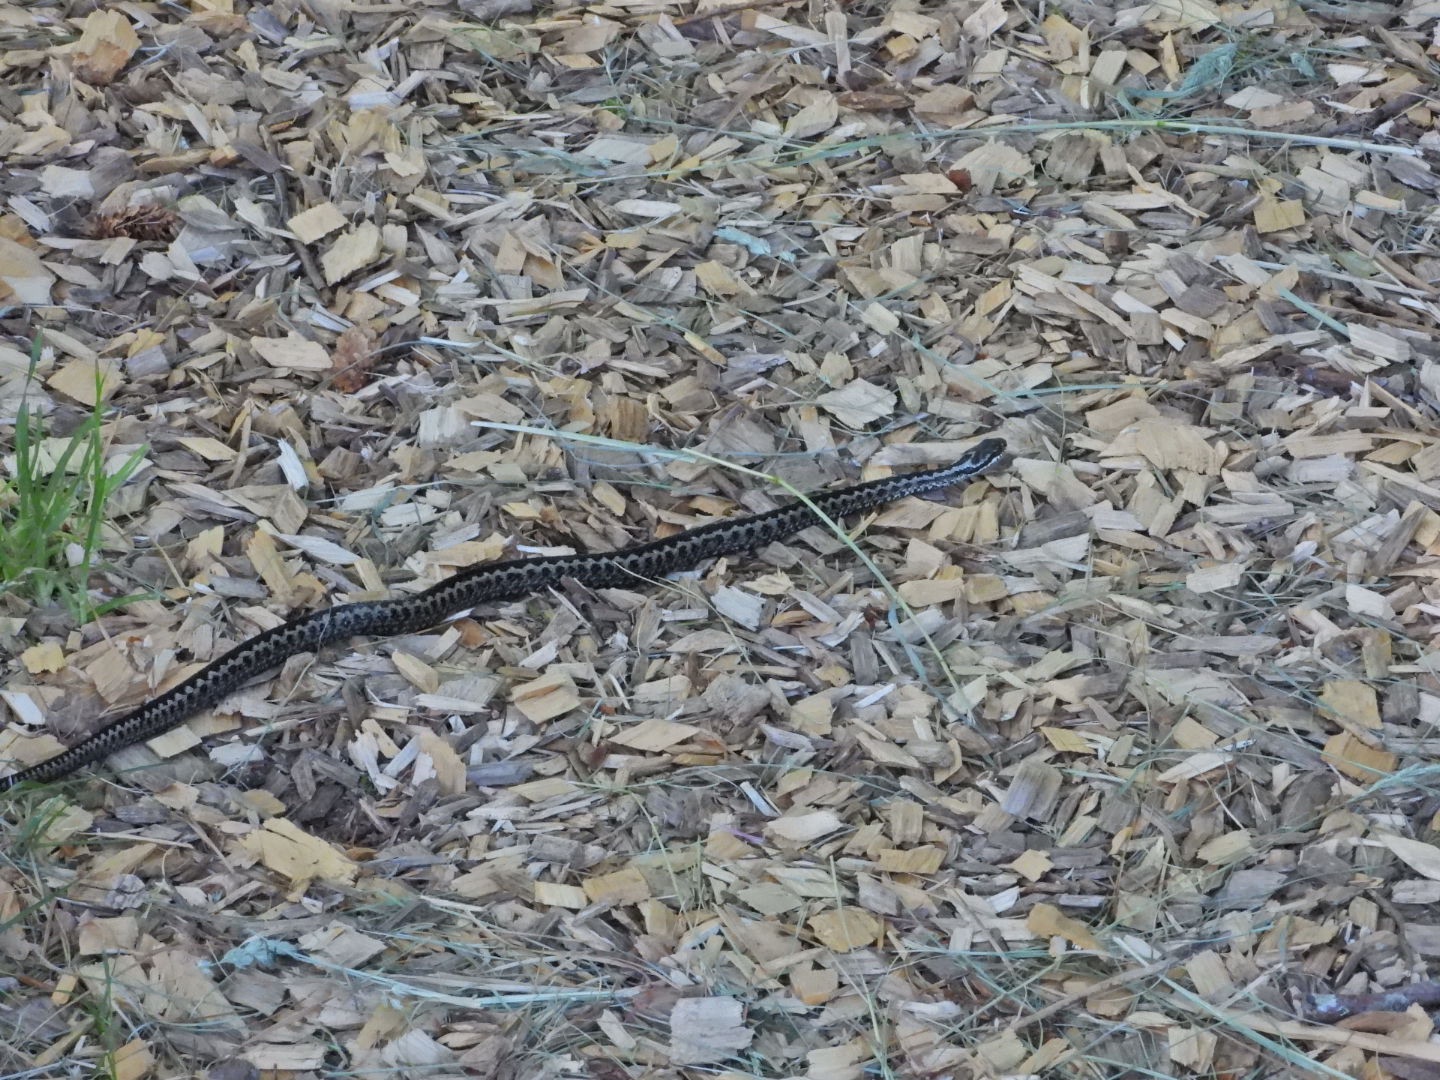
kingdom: Animalia
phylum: Chordata
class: Squamata
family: Viperidae
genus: Vipera
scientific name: Vipera berus
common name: Hugorm
